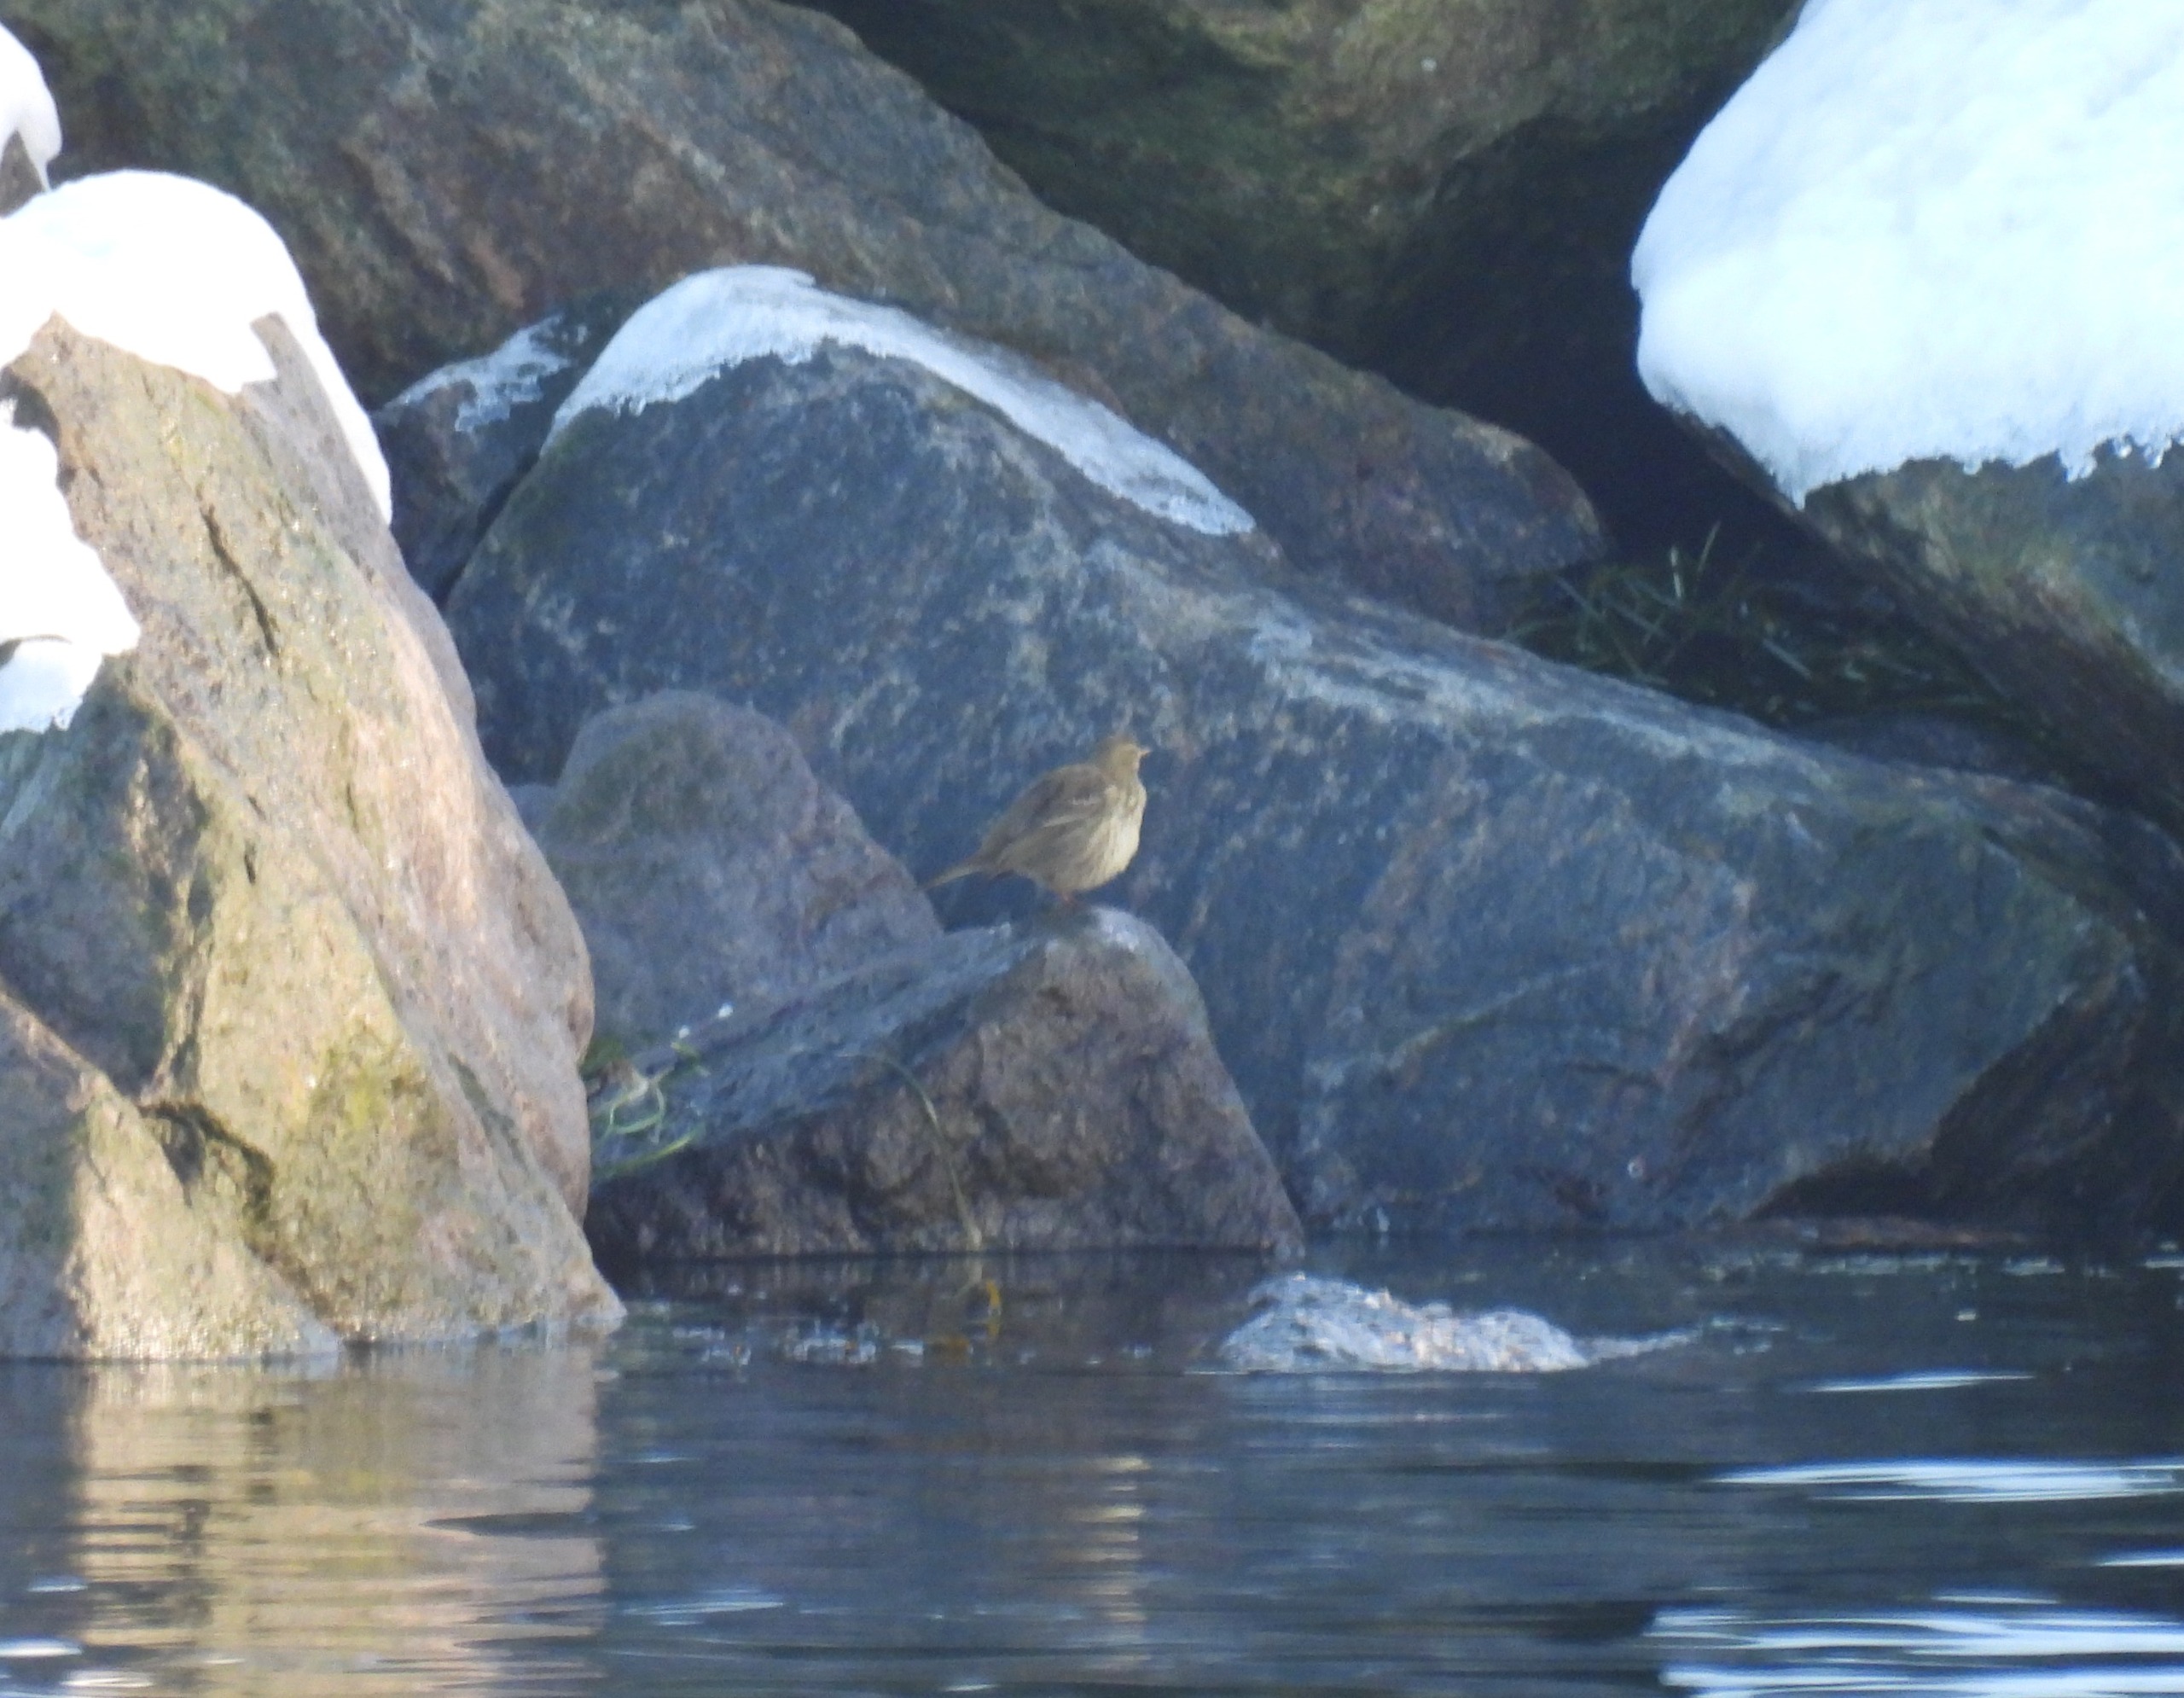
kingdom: Animalia
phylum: Chordata
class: Aves
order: Passeriformes
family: Motacillidae
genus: Anthus
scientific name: Anthus petrosus
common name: Skærpiber
